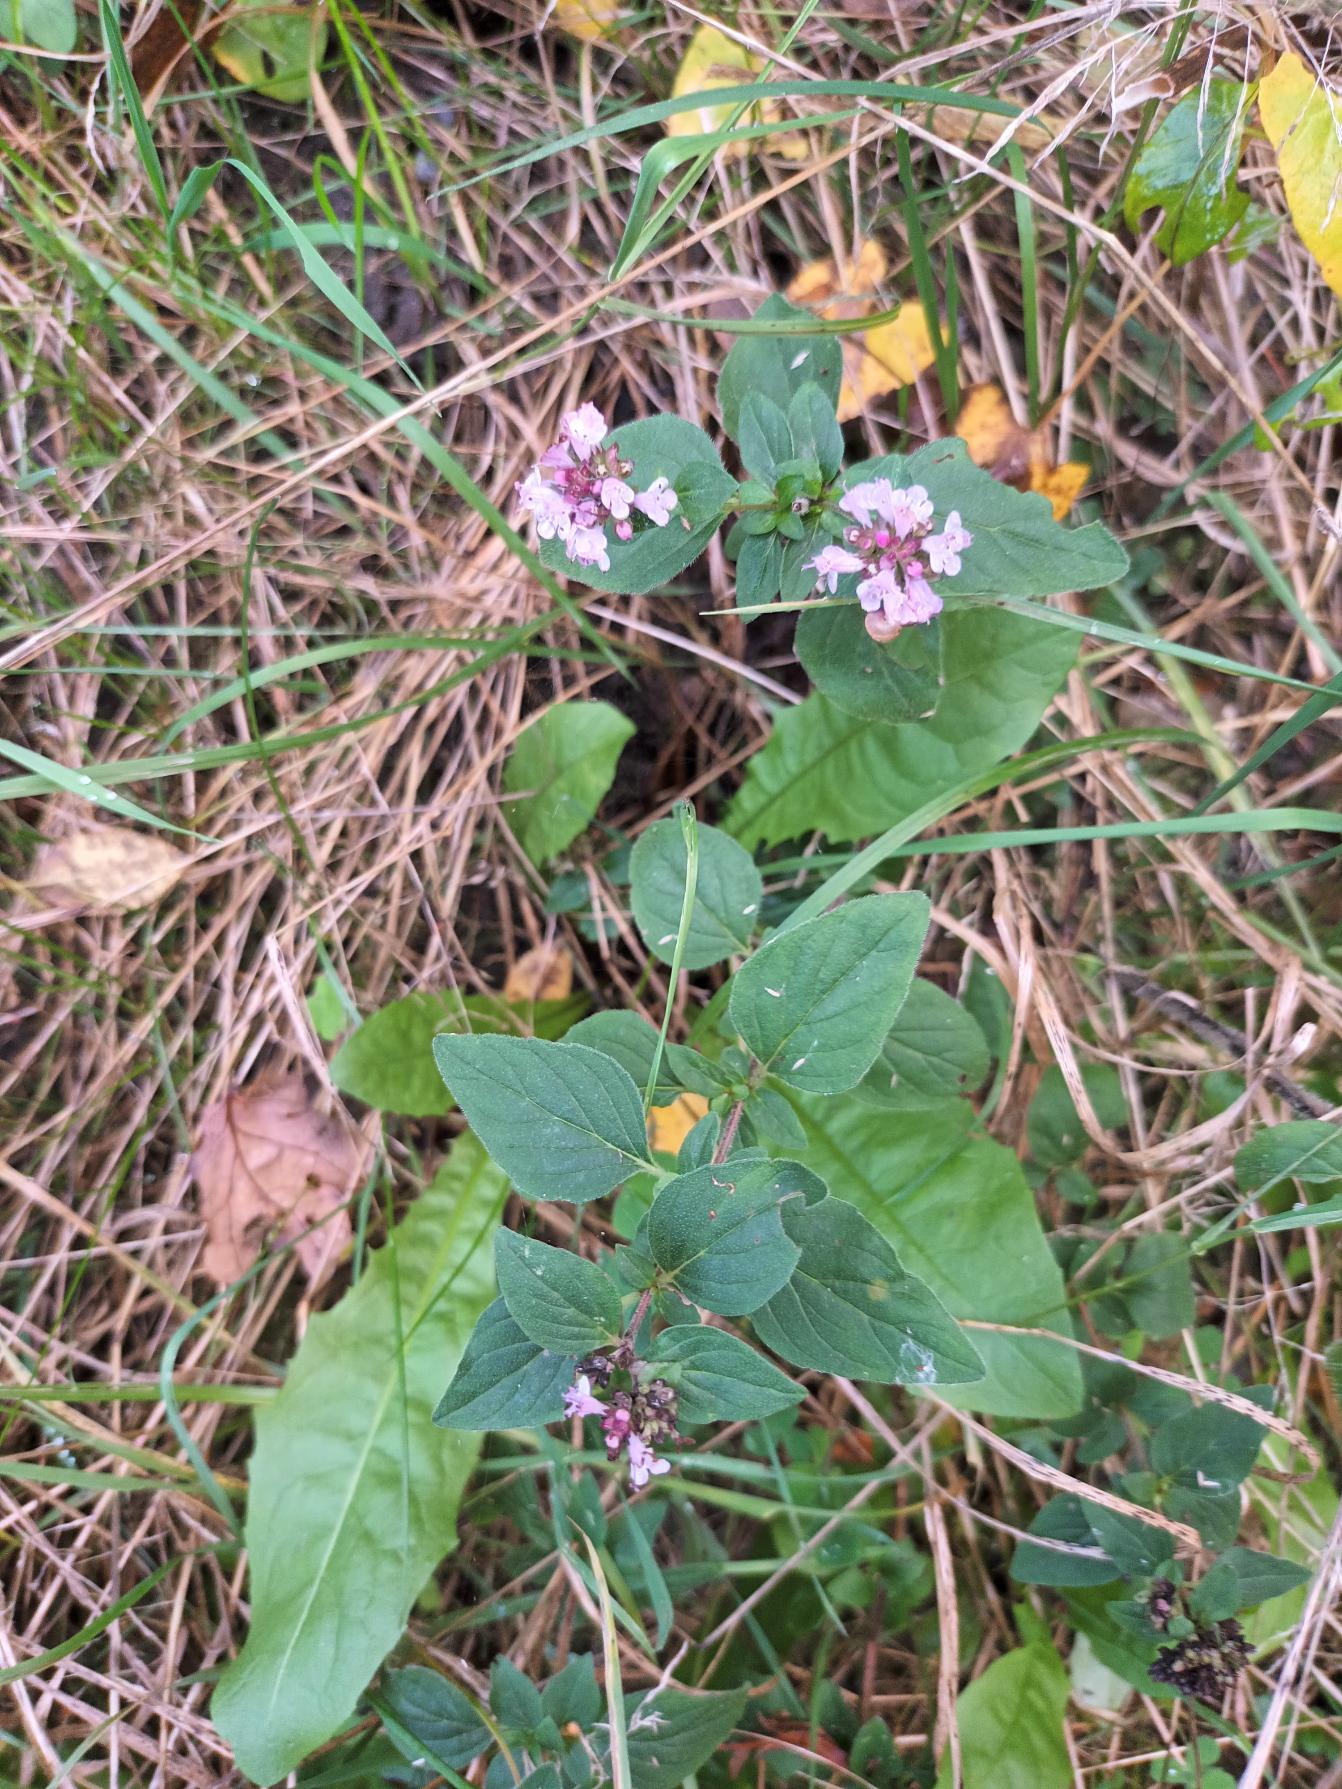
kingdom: Plantae
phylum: Tracheophyta
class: Magnoliopsida
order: Lamiales
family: Lamiaceae
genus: Origanum
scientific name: Origanum vulgare
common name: Merian
